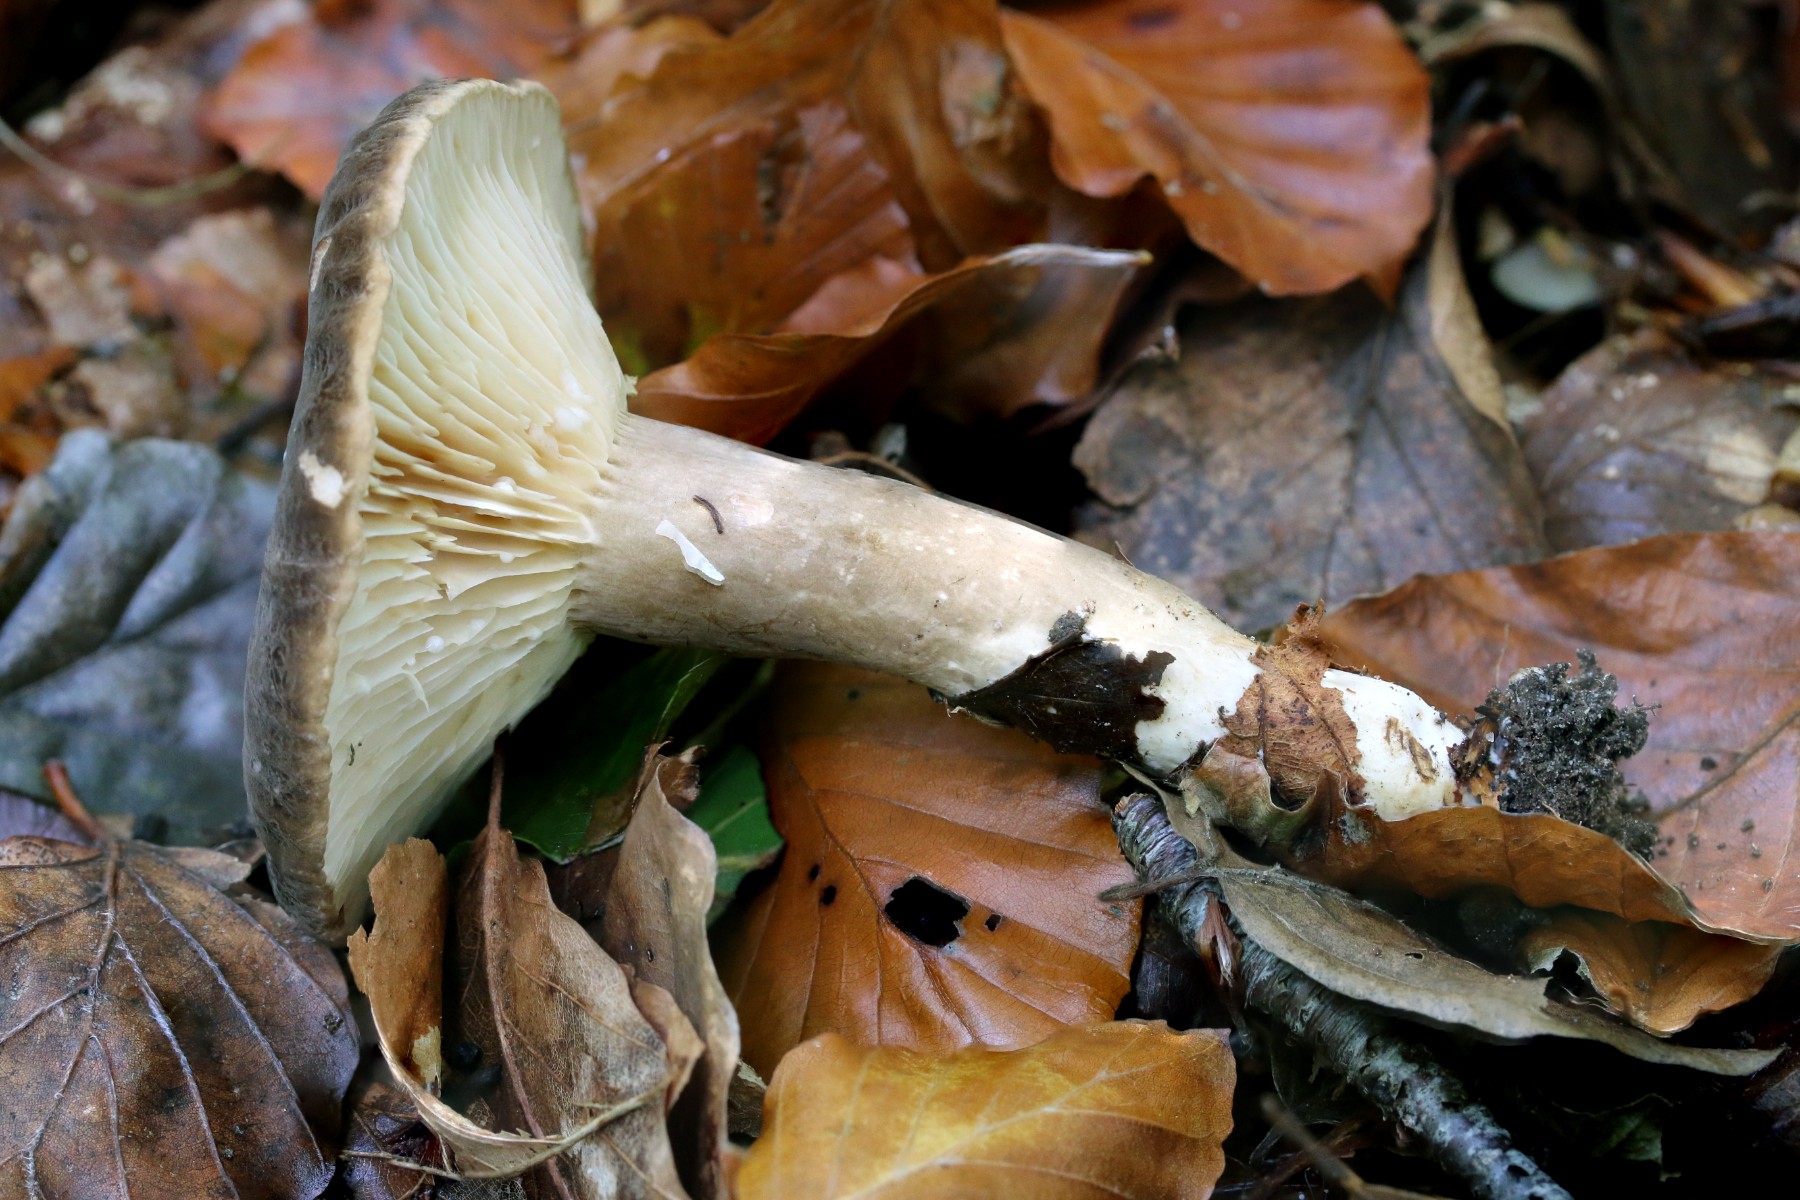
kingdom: Fungi
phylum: Basidiomycota
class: Agaricomycetes
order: Russulales
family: Russulaceae
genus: Lactarius
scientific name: Lactarius romagnesii
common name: fjernbladet mælkehat
